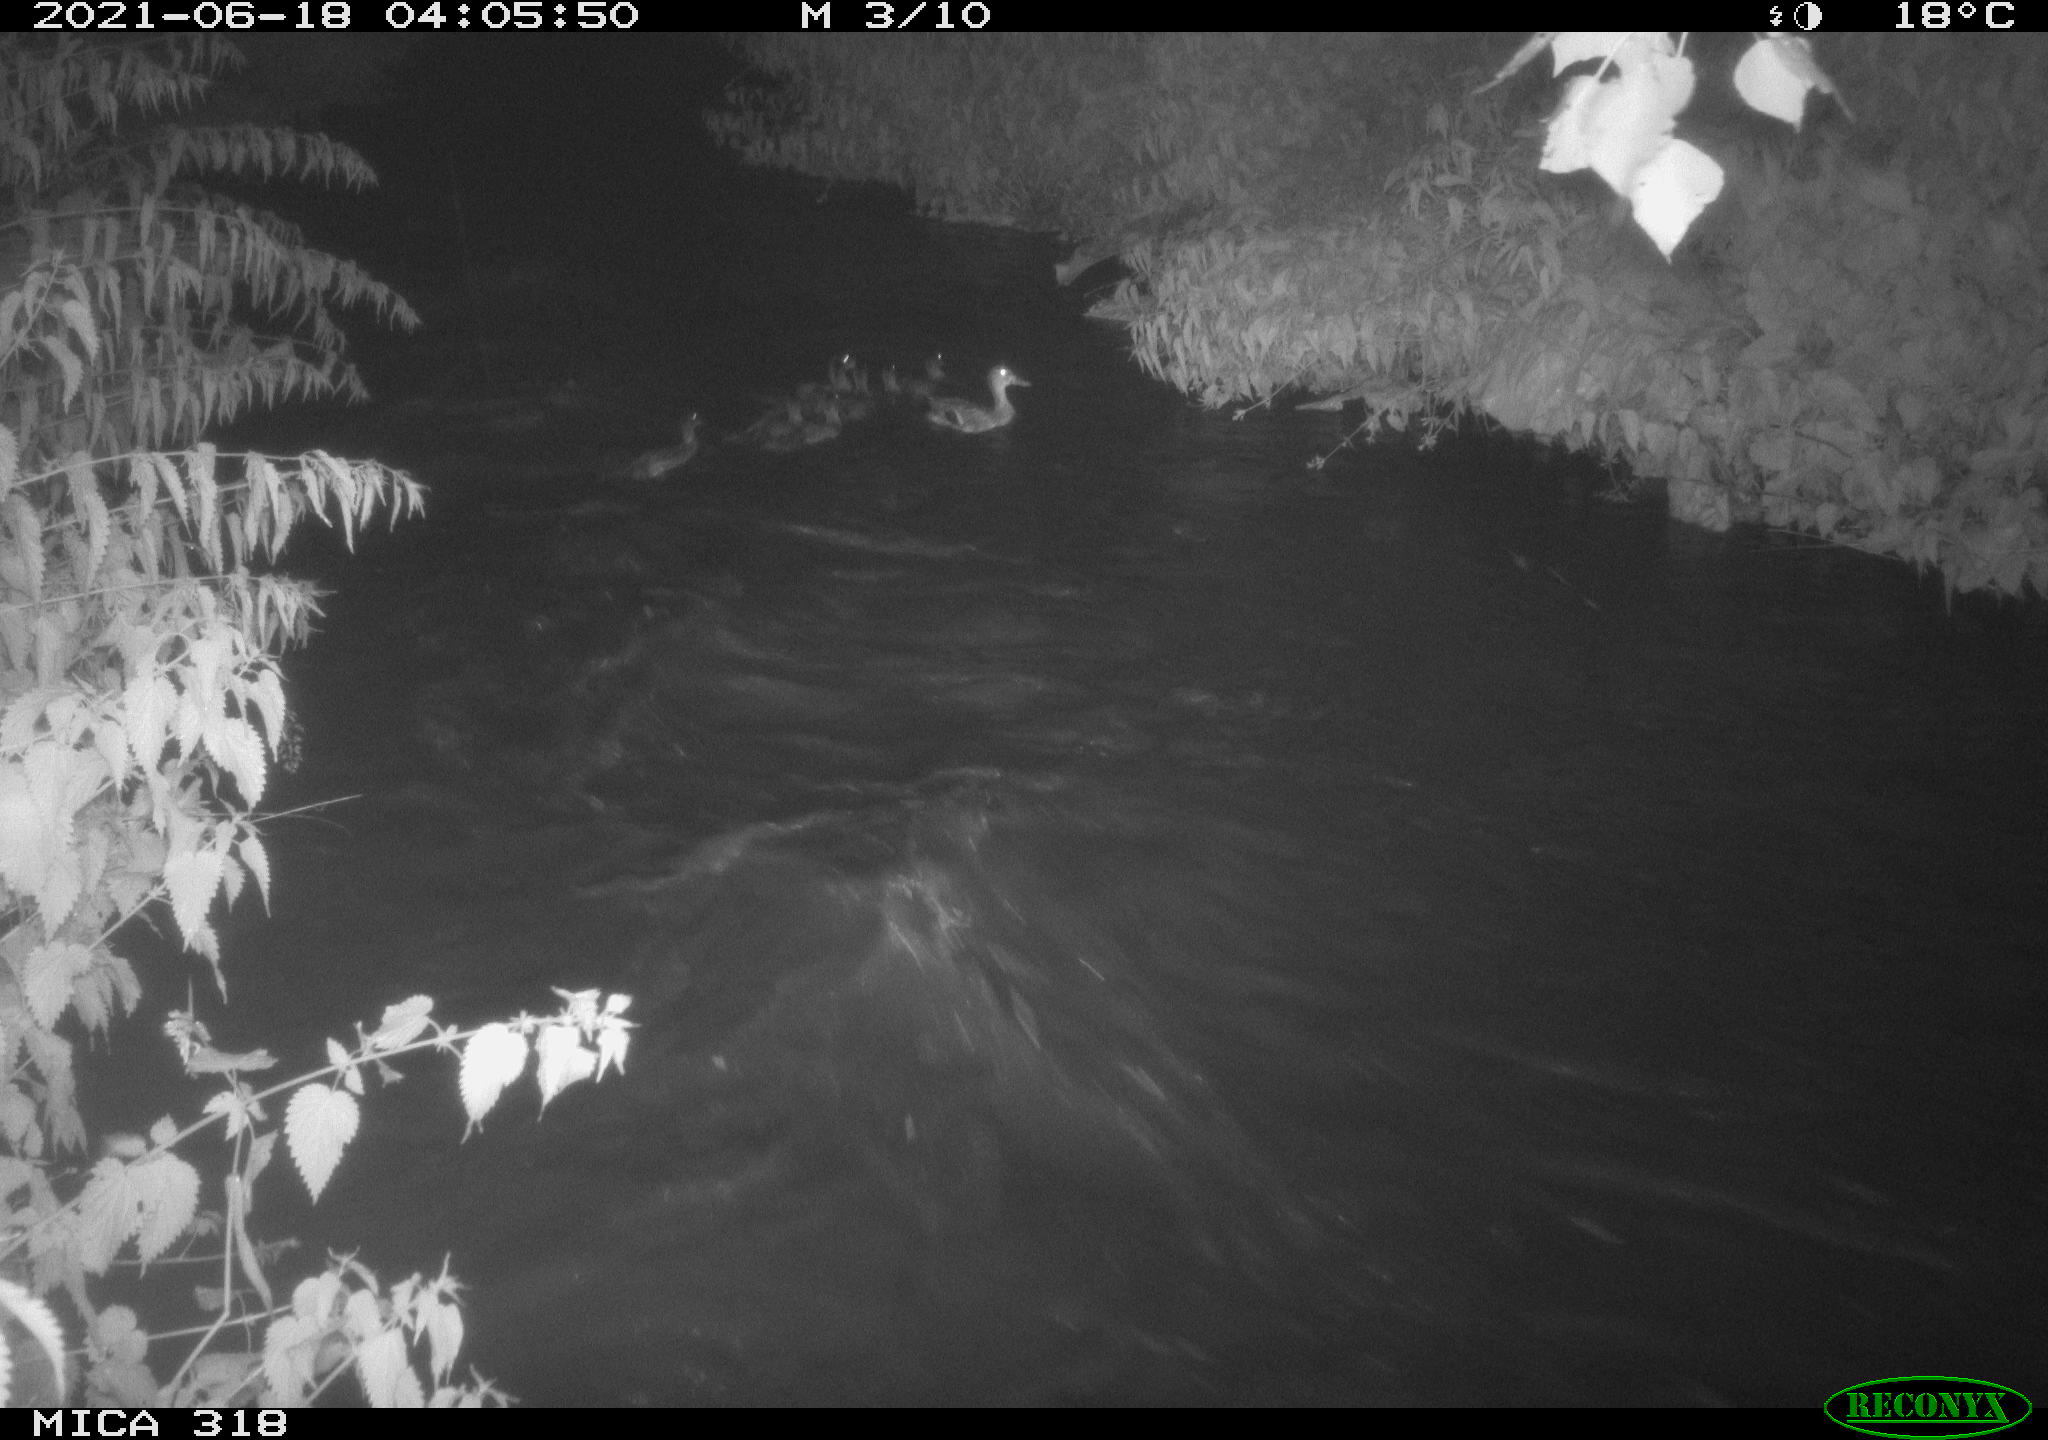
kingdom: Animalia
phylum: Chordata
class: Aves
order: Anseriformes
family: Anatidae
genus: Anas
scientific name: Anas platyrhynchos
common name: Mallard
